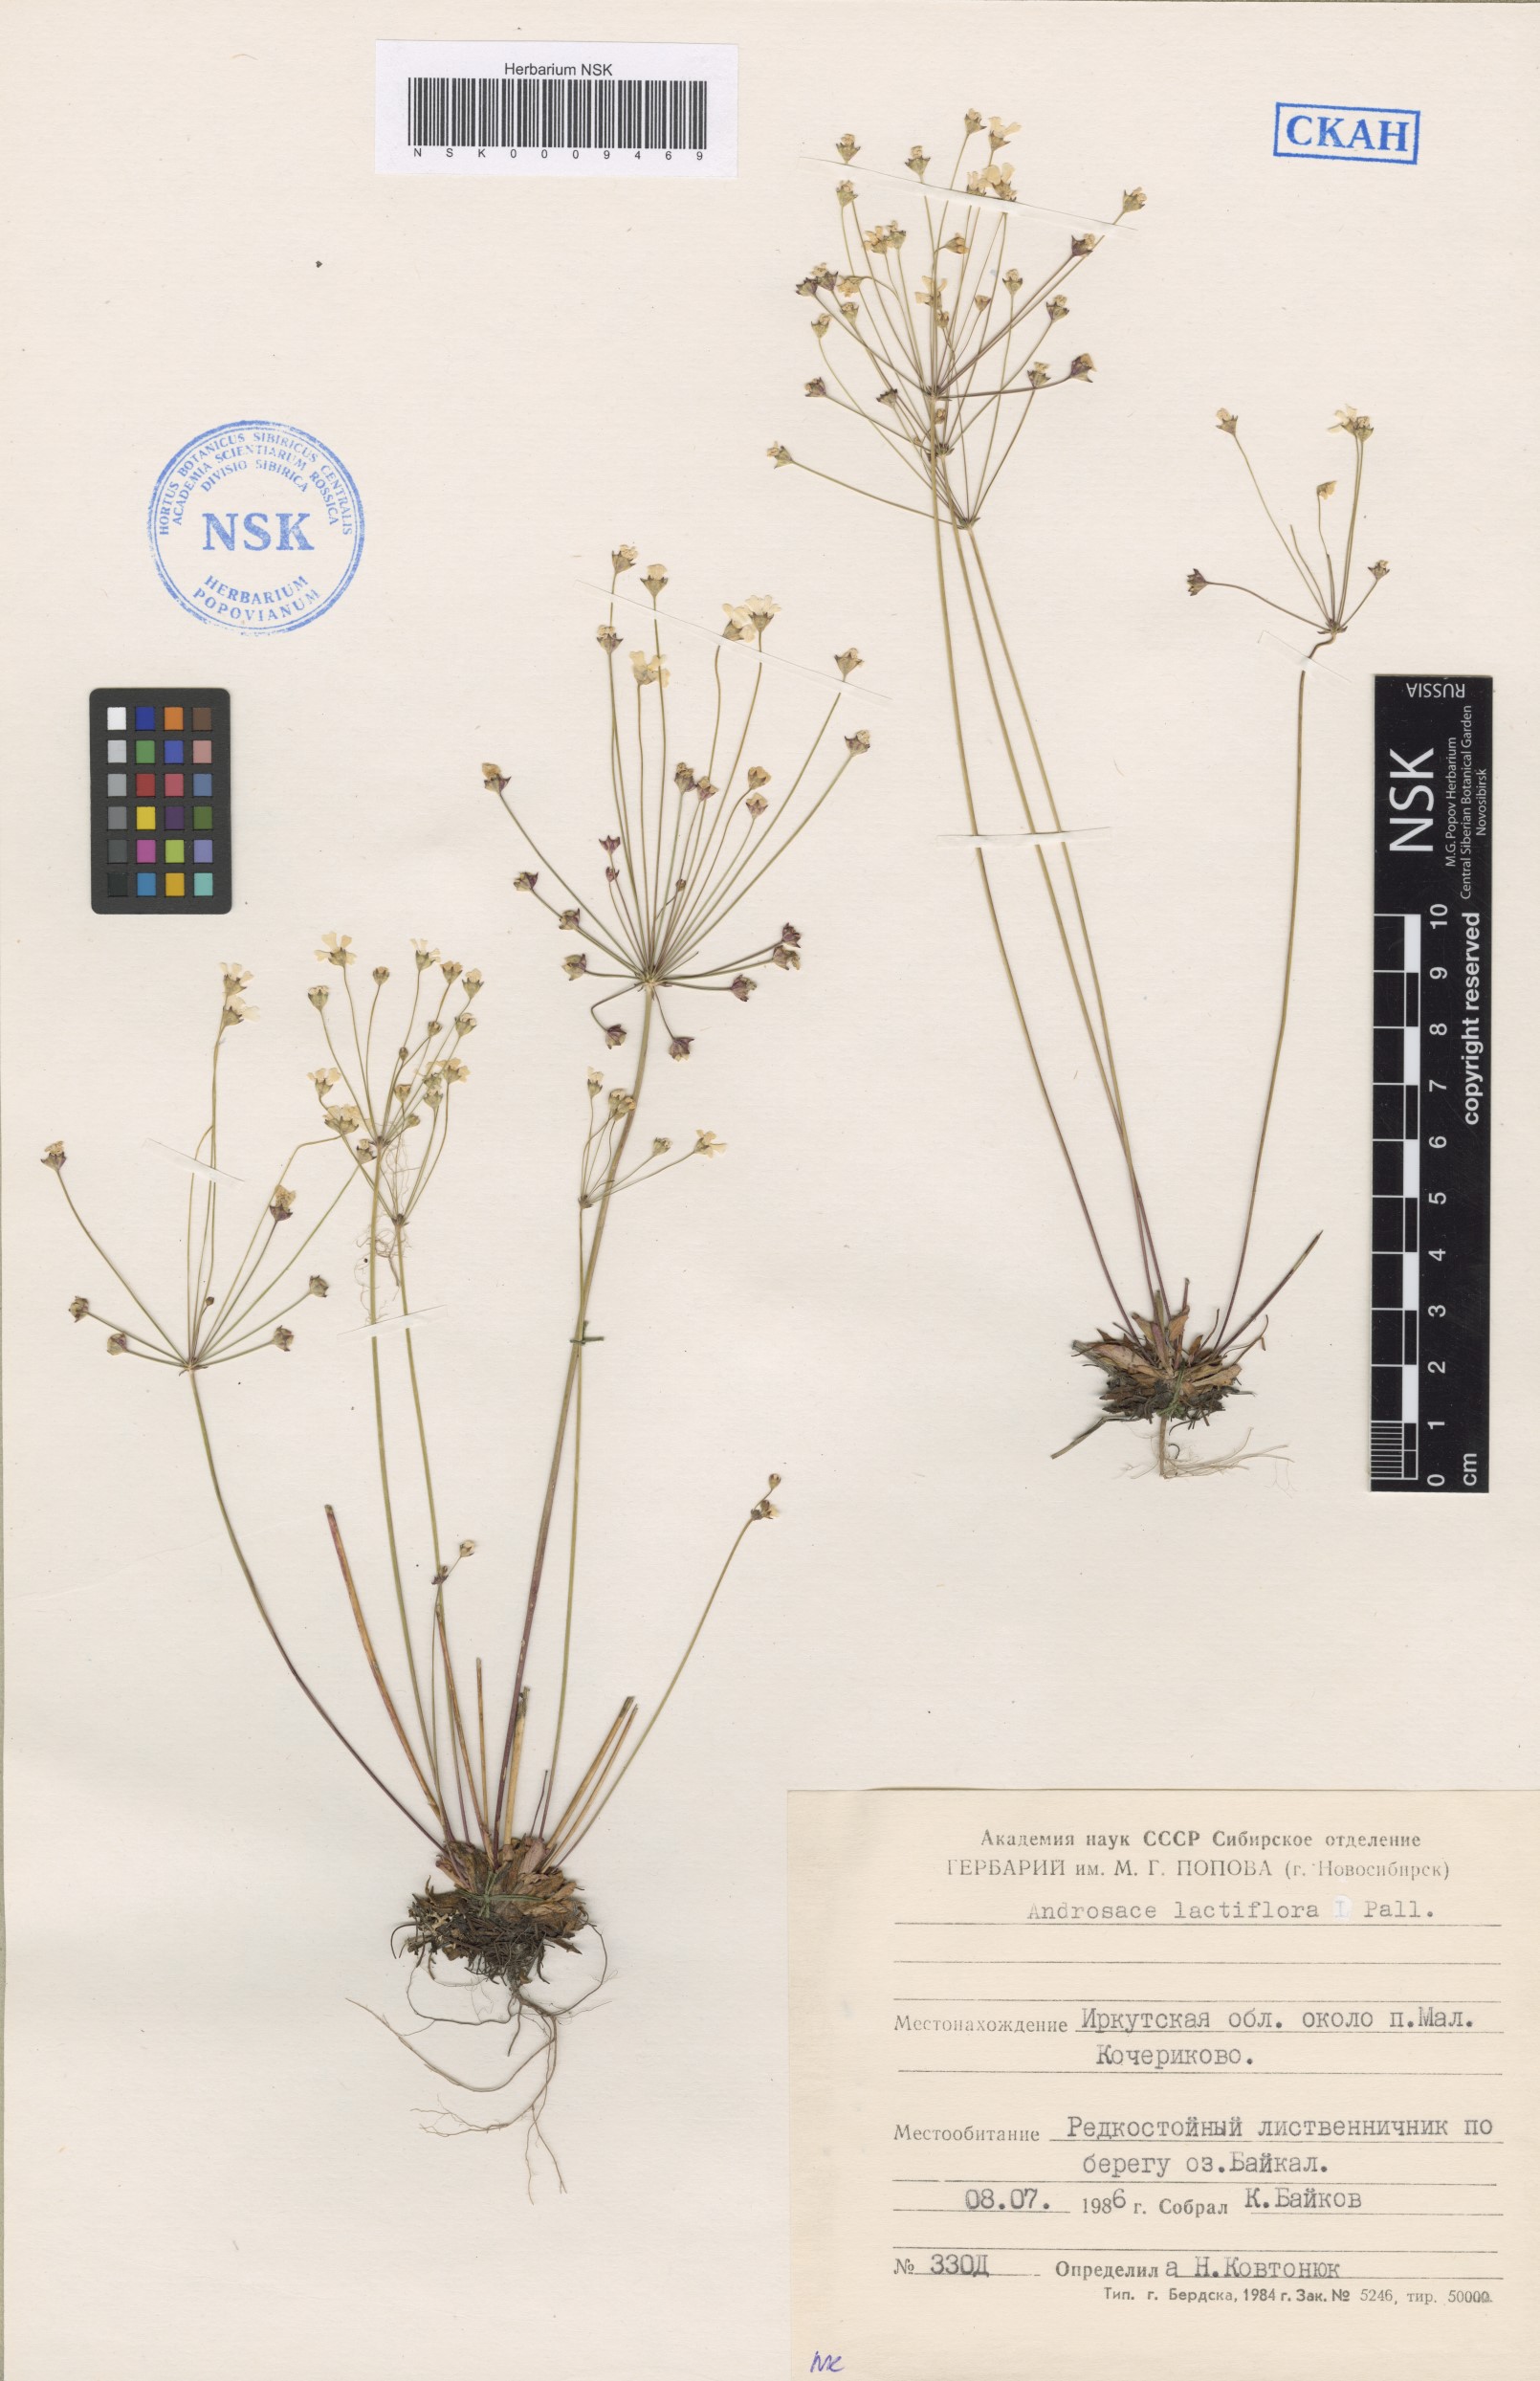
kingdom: Plantae
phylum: Tracheophyta
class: Magnoliopsida
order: Ericales
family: Primulaceae
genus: Androsace
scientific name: Androsace lactiflora
